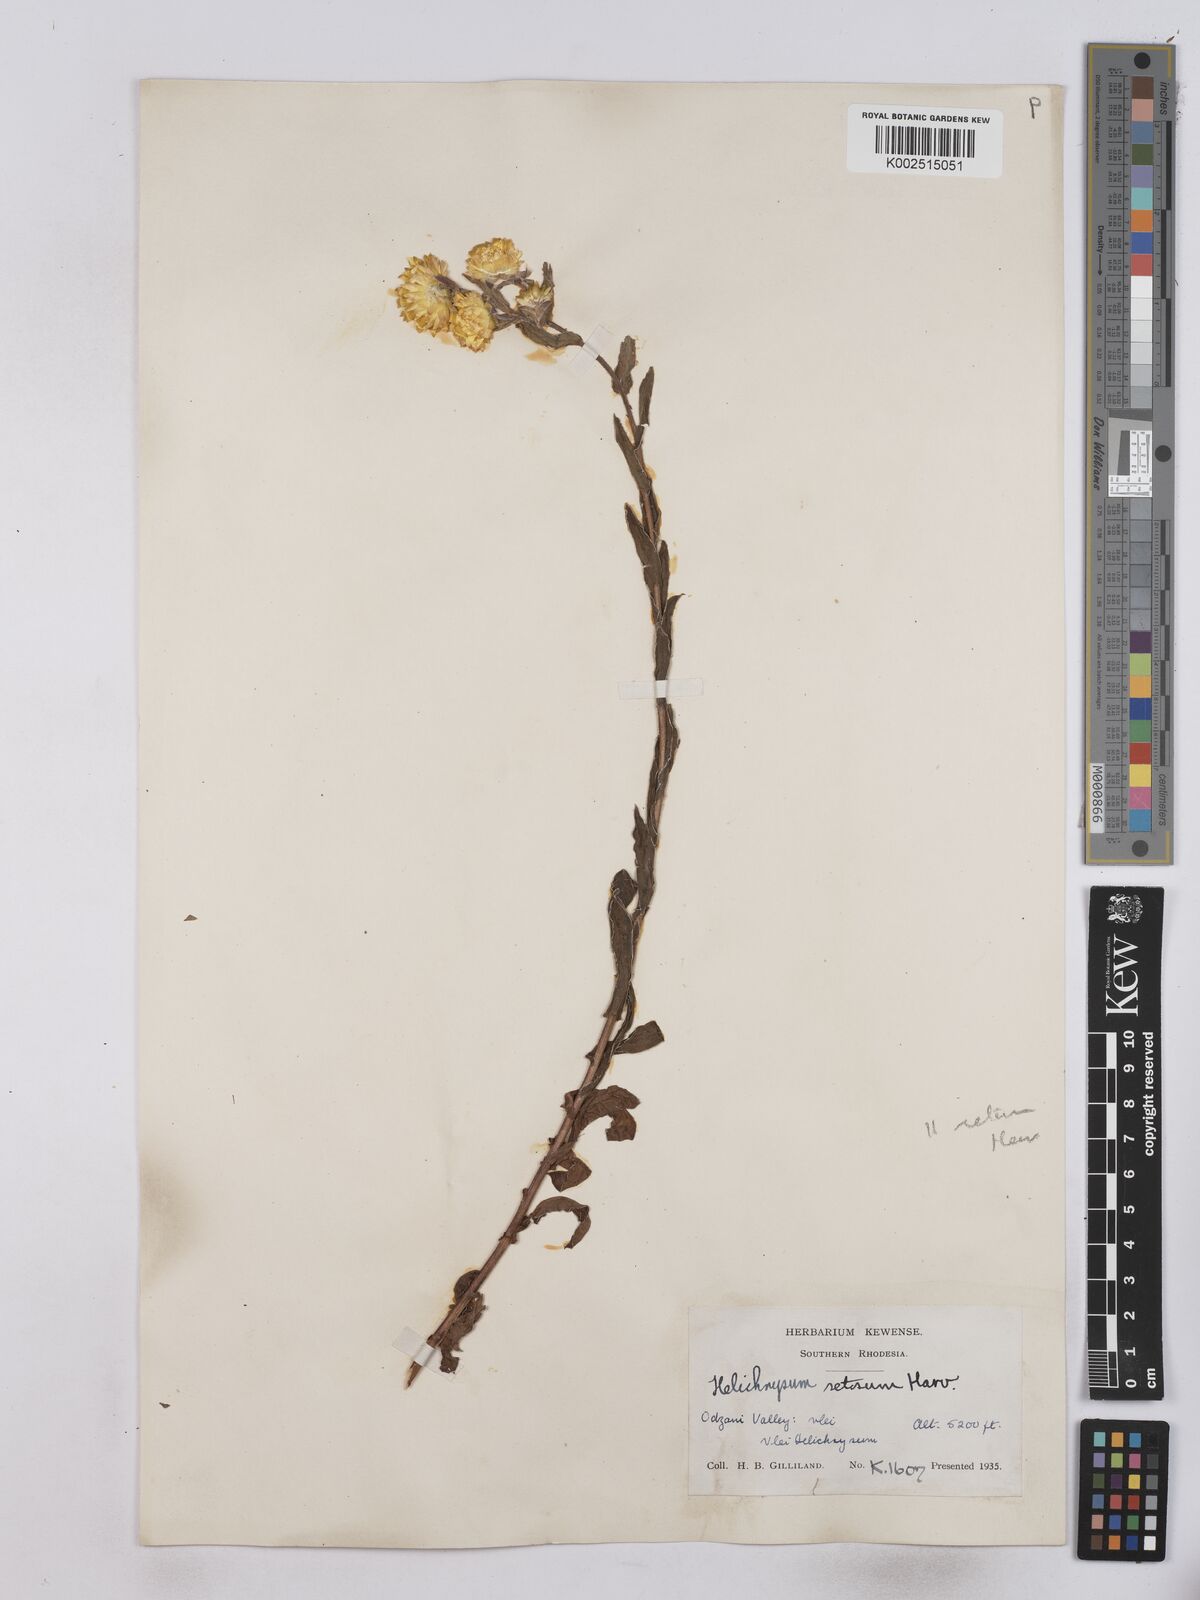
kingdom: Plantae
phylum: Tracheophyta
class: Magnoliopsida
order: Asterales
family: Asteraceae
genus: Helichrysum
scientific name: Helichrysum setosum
